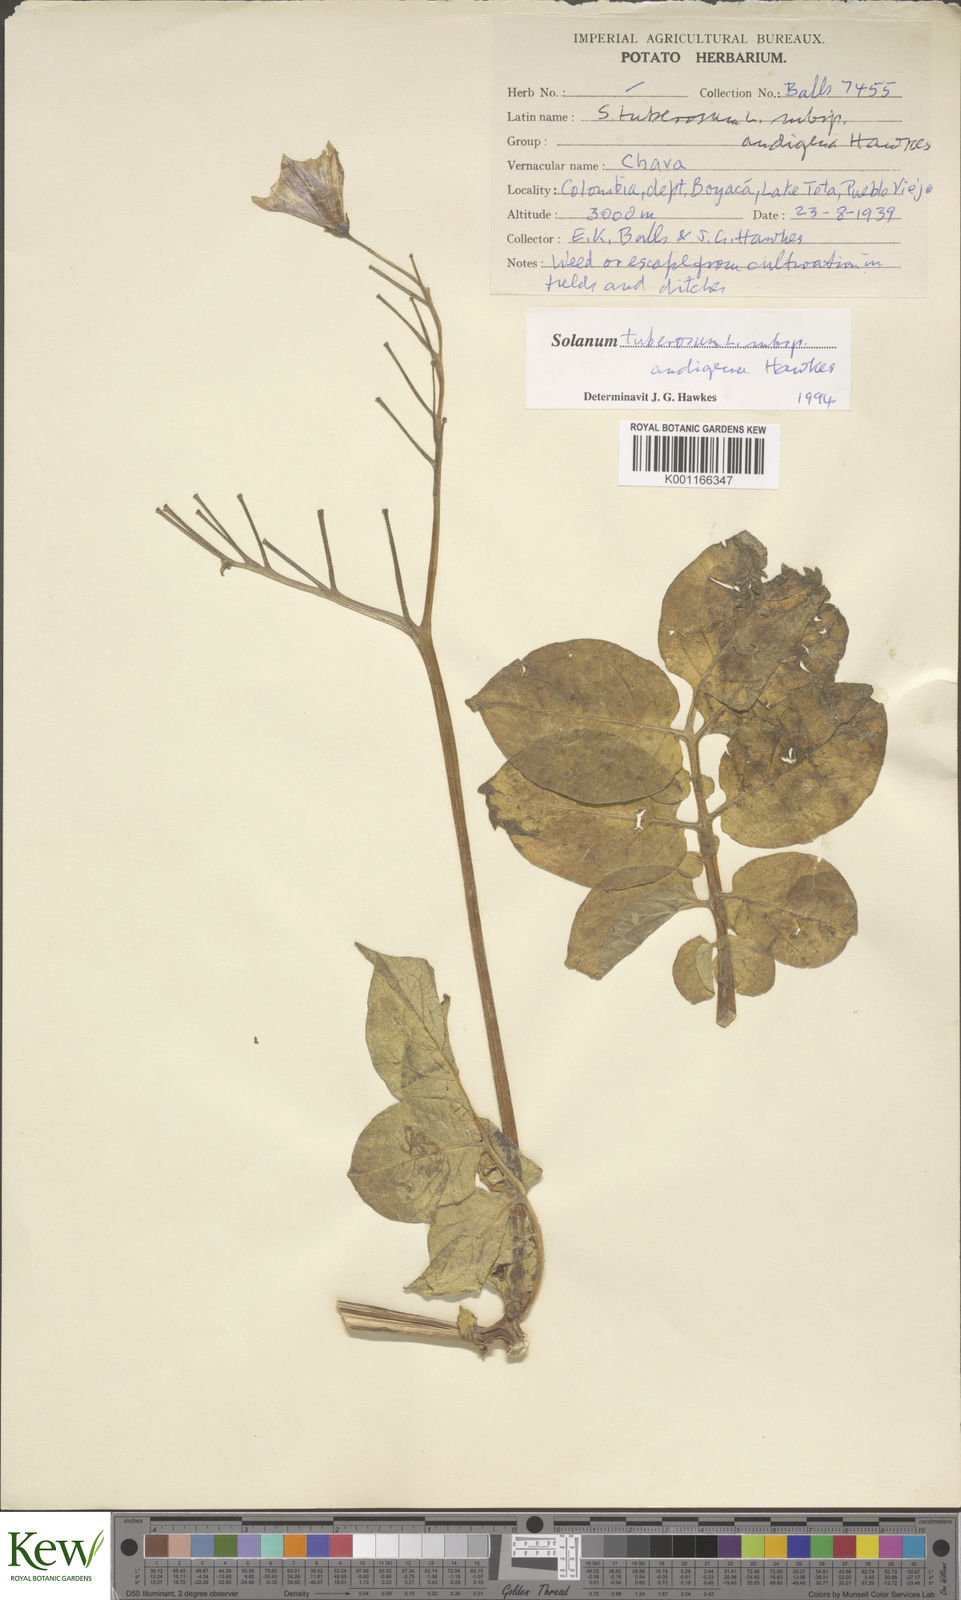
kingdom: Plantae
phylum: Tracheophyta
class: Magnoliopsida
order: Solanales
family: Solanaceae
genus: Solanum
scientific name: Solanum tuberosum
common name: Potato
